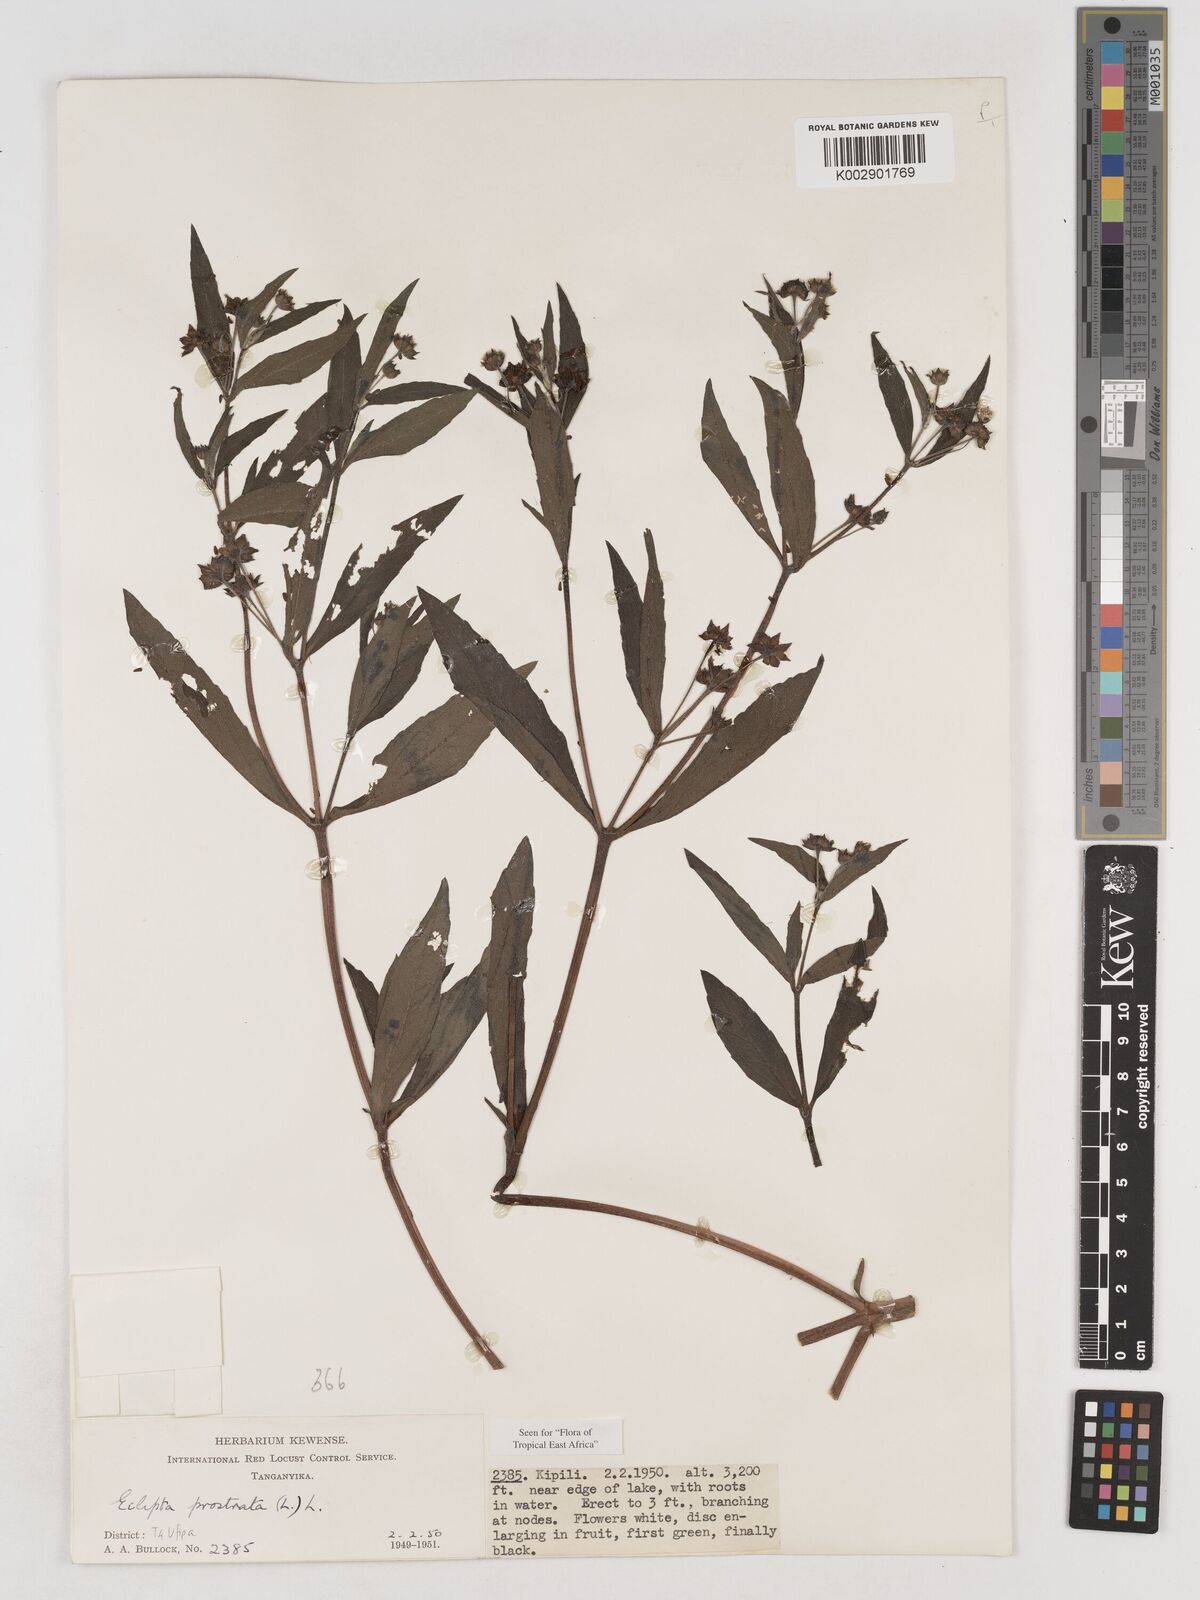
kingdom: Plantae
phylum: Tracheophyta
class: Magnoliopsida
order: Asterales
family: Asteraceae
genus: Eclipta
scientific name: Eclipta alba
